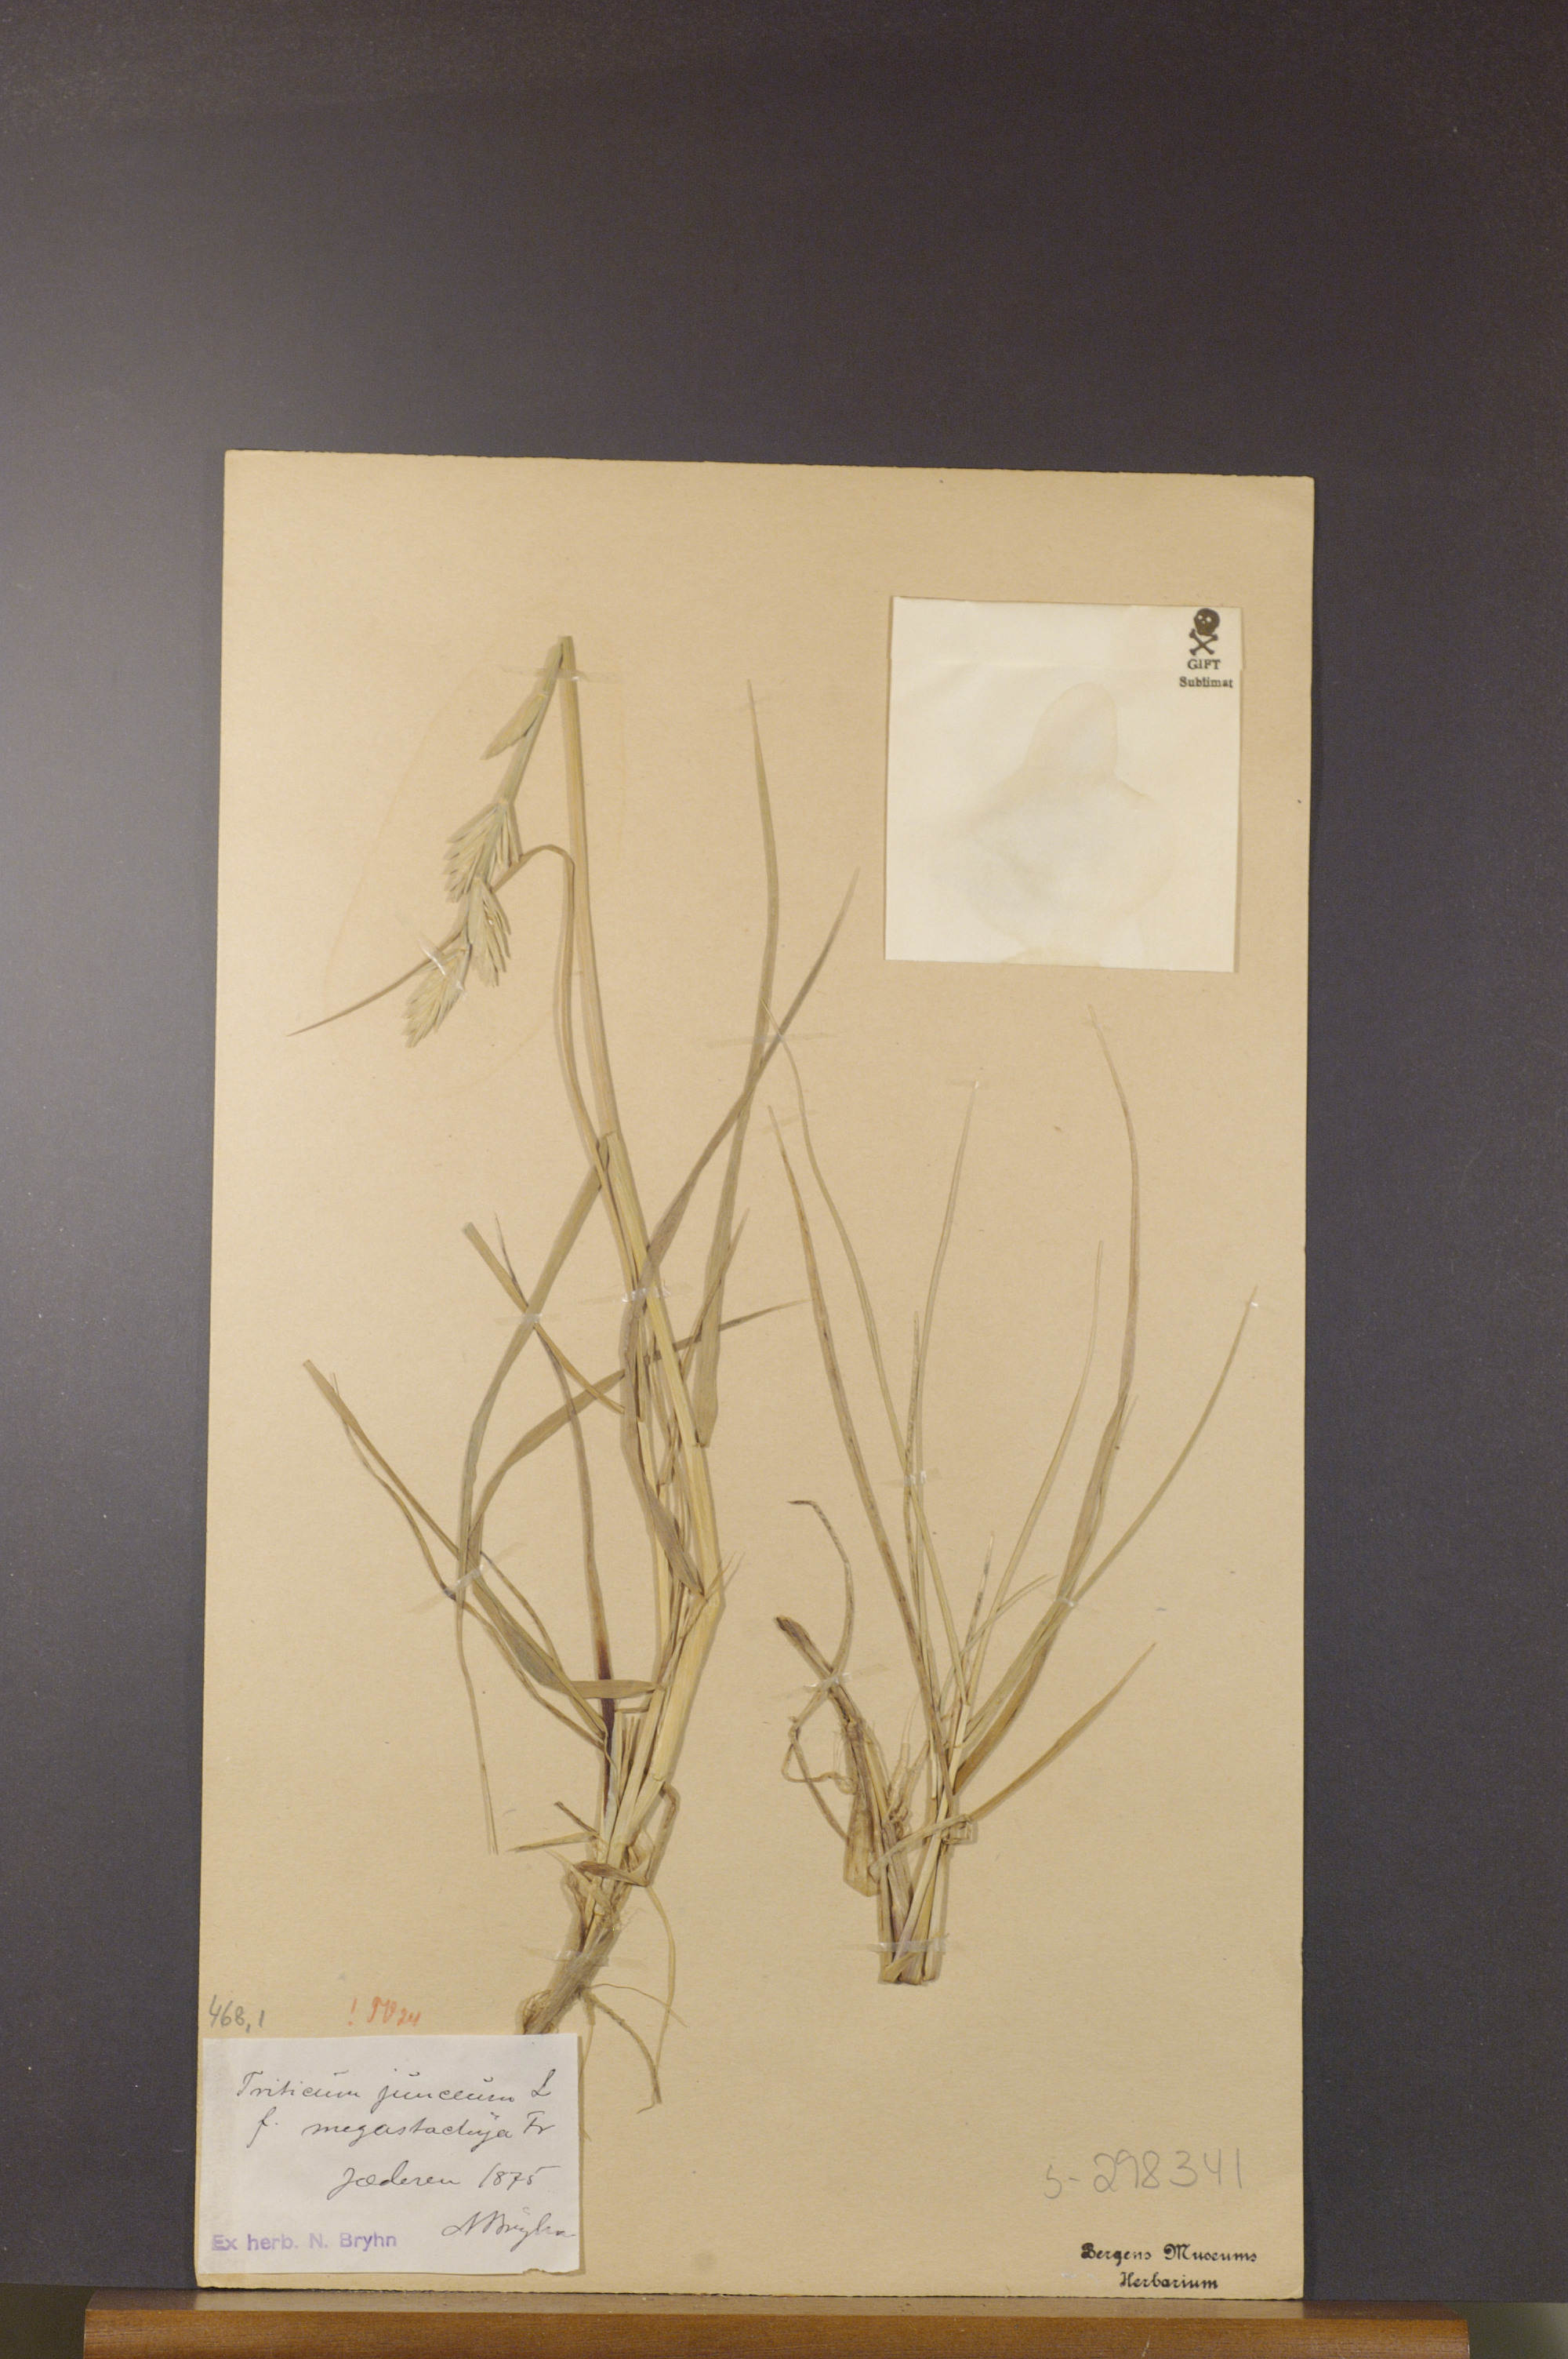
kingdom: Plantae
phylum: Tracheophyta
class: Liliopsida
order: Poales
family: Poaceae
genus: Thinopyrum
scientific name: Thinopyrum junceum
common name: Russian wheatgrass
